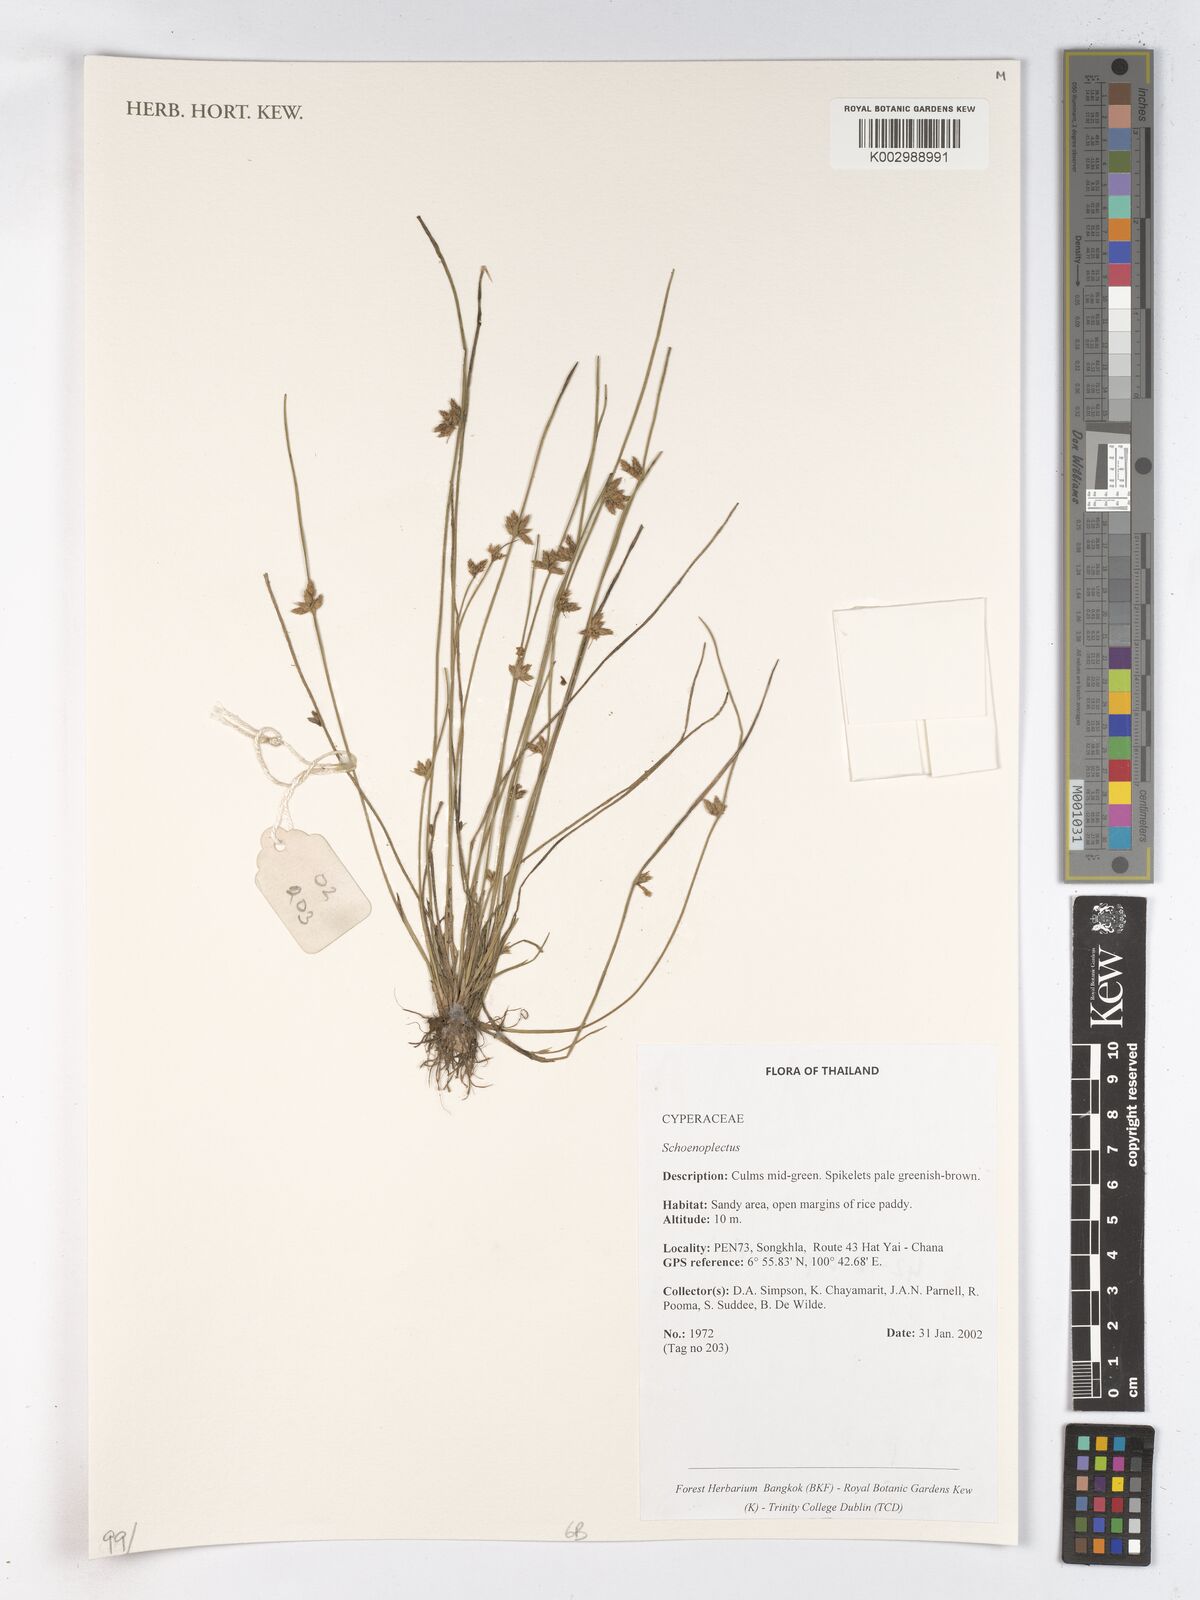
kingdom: Plantae
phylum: Tracheophyta
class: Liliopsida
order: Poales
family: Cyperaceae
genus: Schoenoplectus
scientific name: Schoenoplectus
